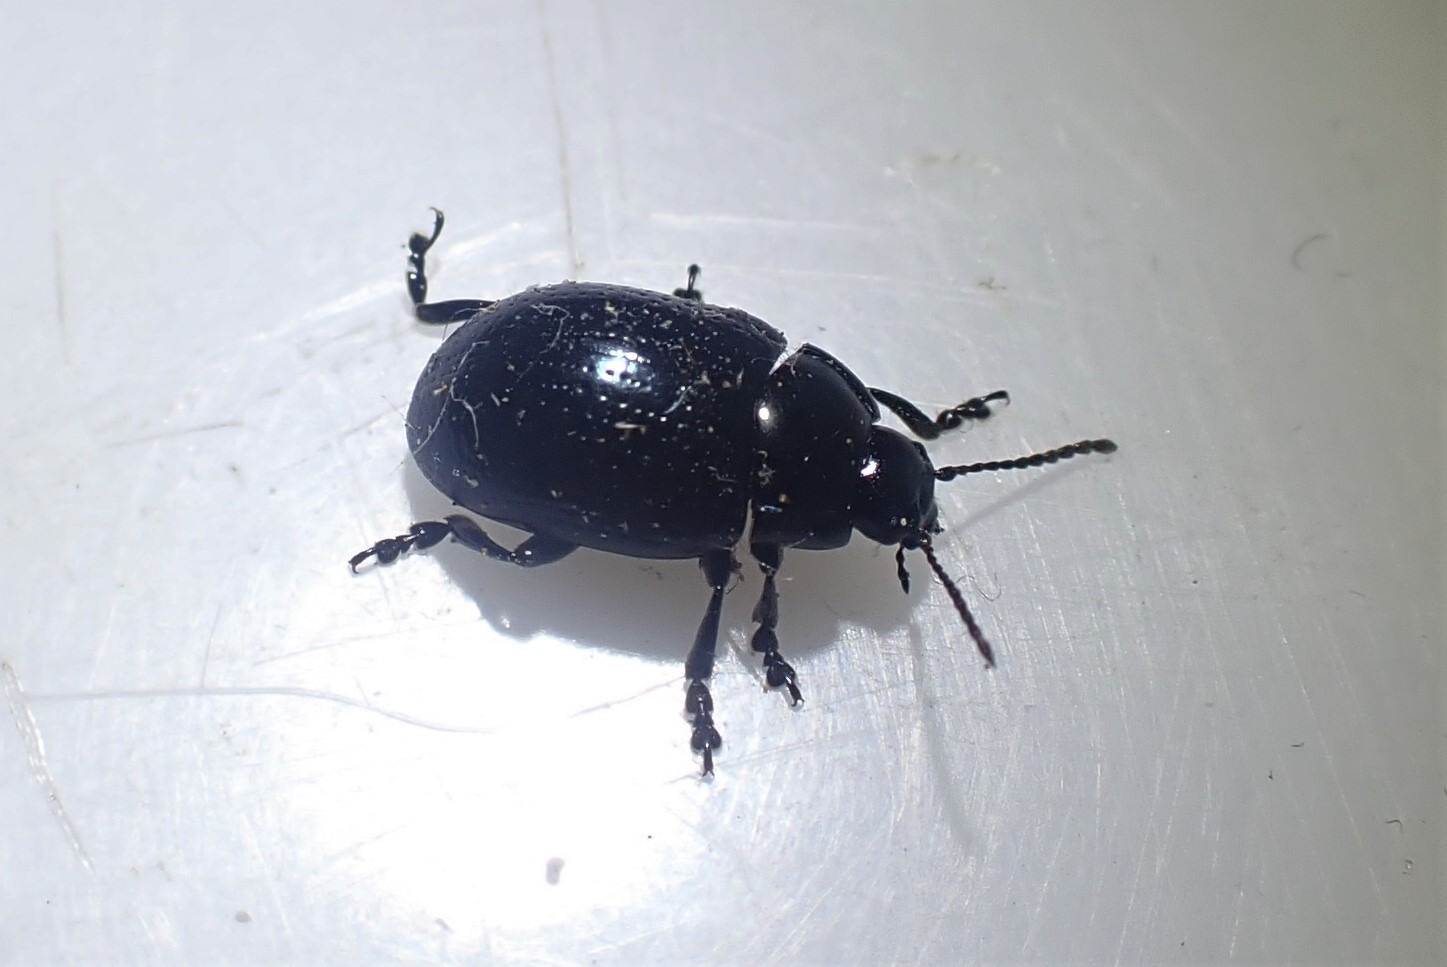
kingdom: Animalia
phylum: Arthropoda
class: Insecta
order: Coleoptera
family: Chrysomelidae
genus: Chrysolina
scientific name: Chrysolina oricalcia
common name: Rækkepunkteret guldbille
